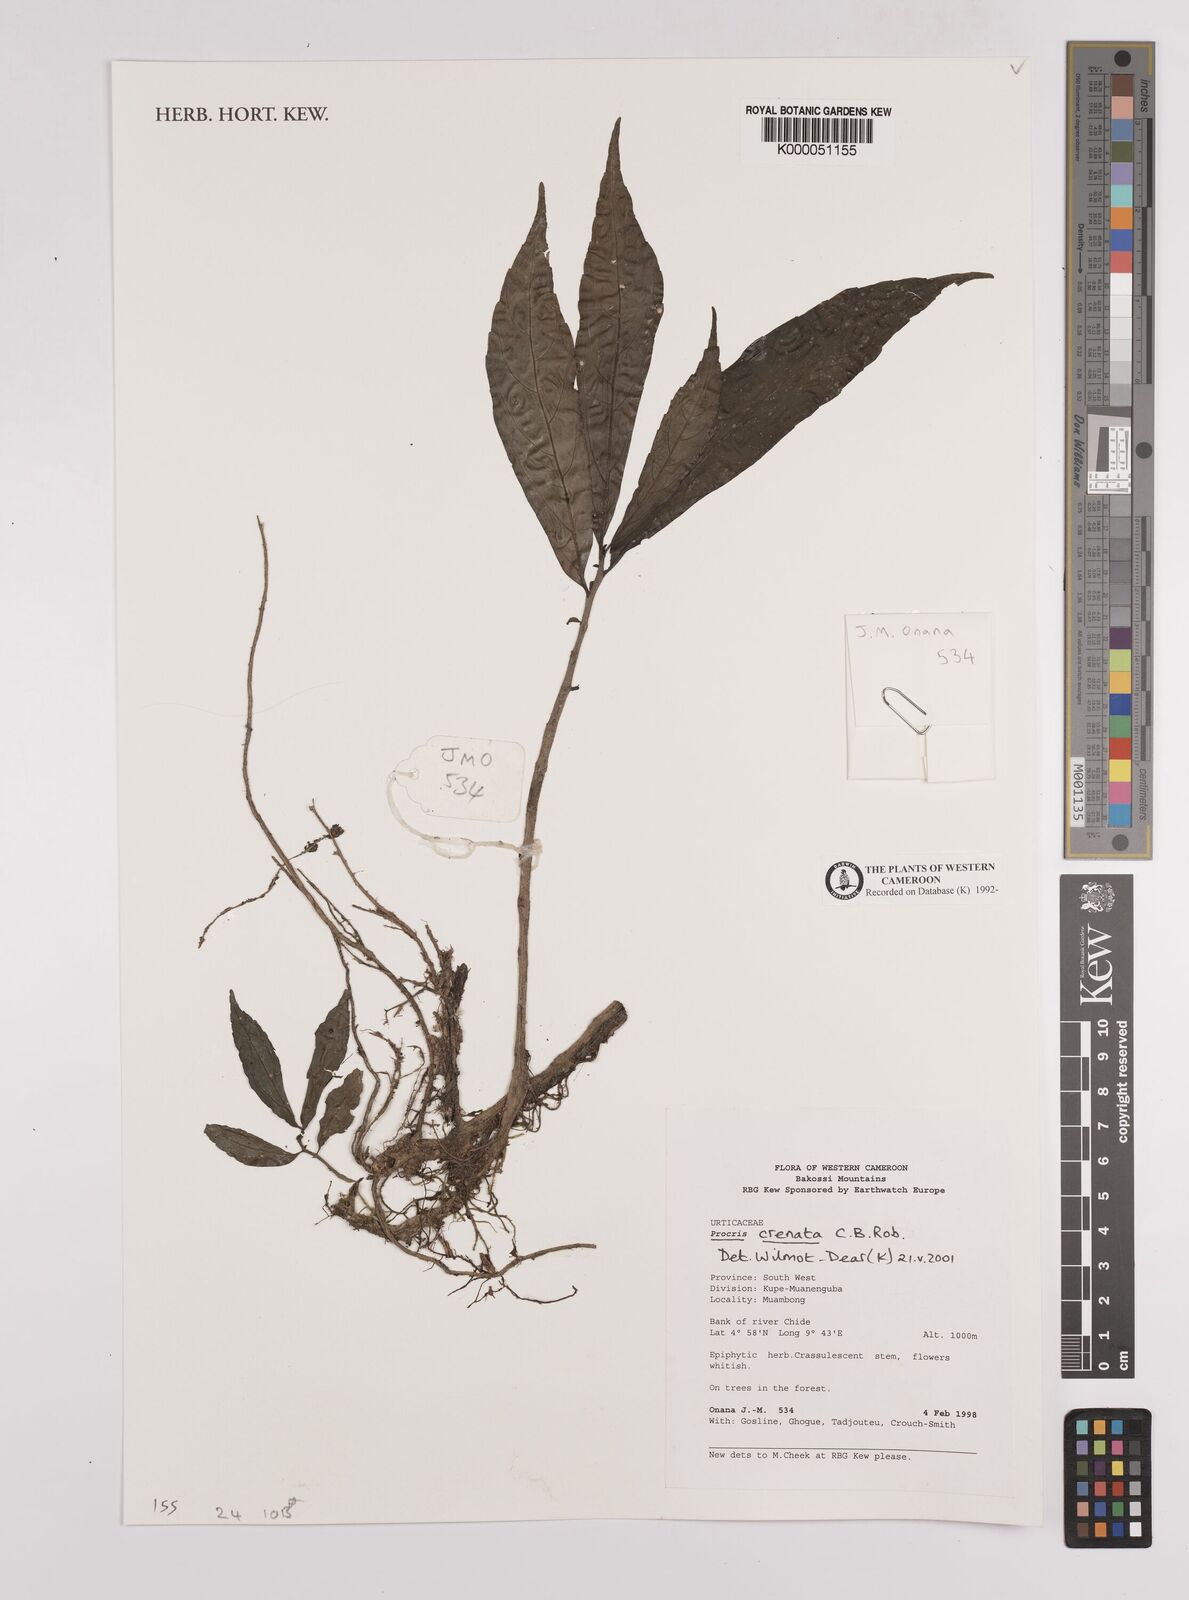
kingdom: Plantae
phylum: Tracheophyta
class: Magnoliopsida
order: Rosales
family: Urticaceae
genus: Procris
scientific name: Procris crenata
